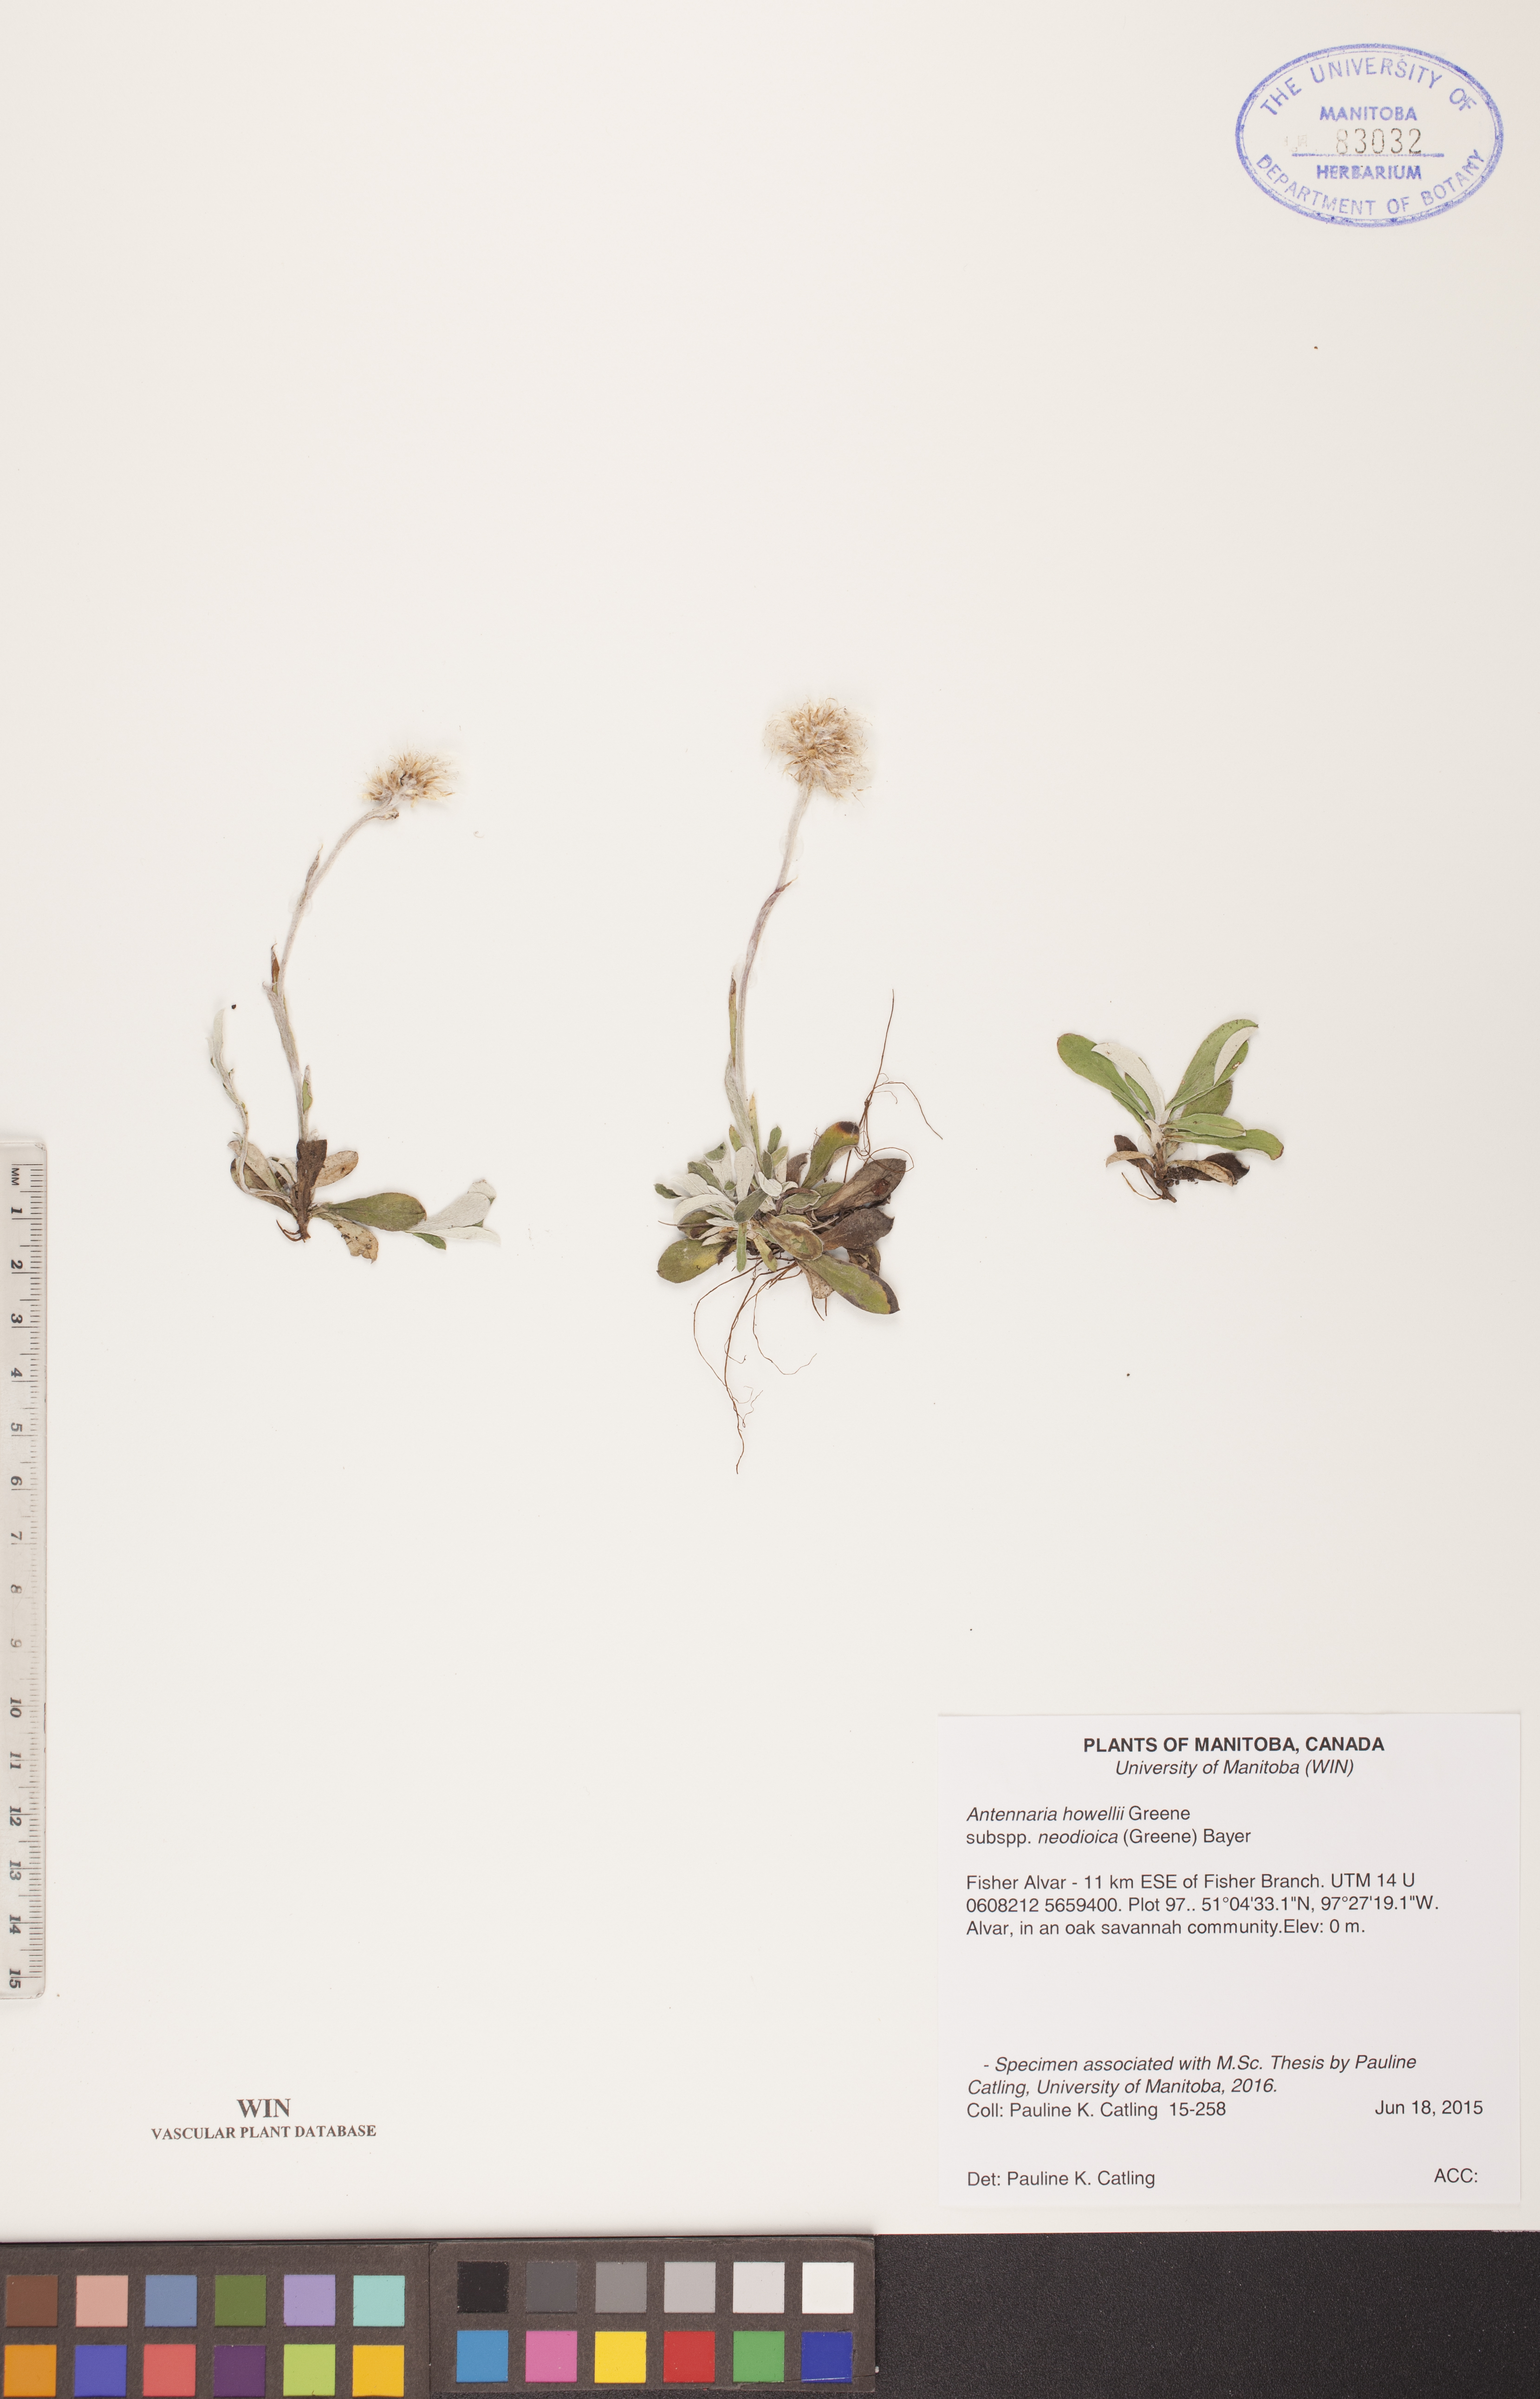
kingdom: Plantae
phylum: Tracheophyta
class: Magnoliopsida
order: Asterales
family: Asteraceae
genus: Antennaria
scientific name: Antennaria howellii
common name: Howell's pussytoes
